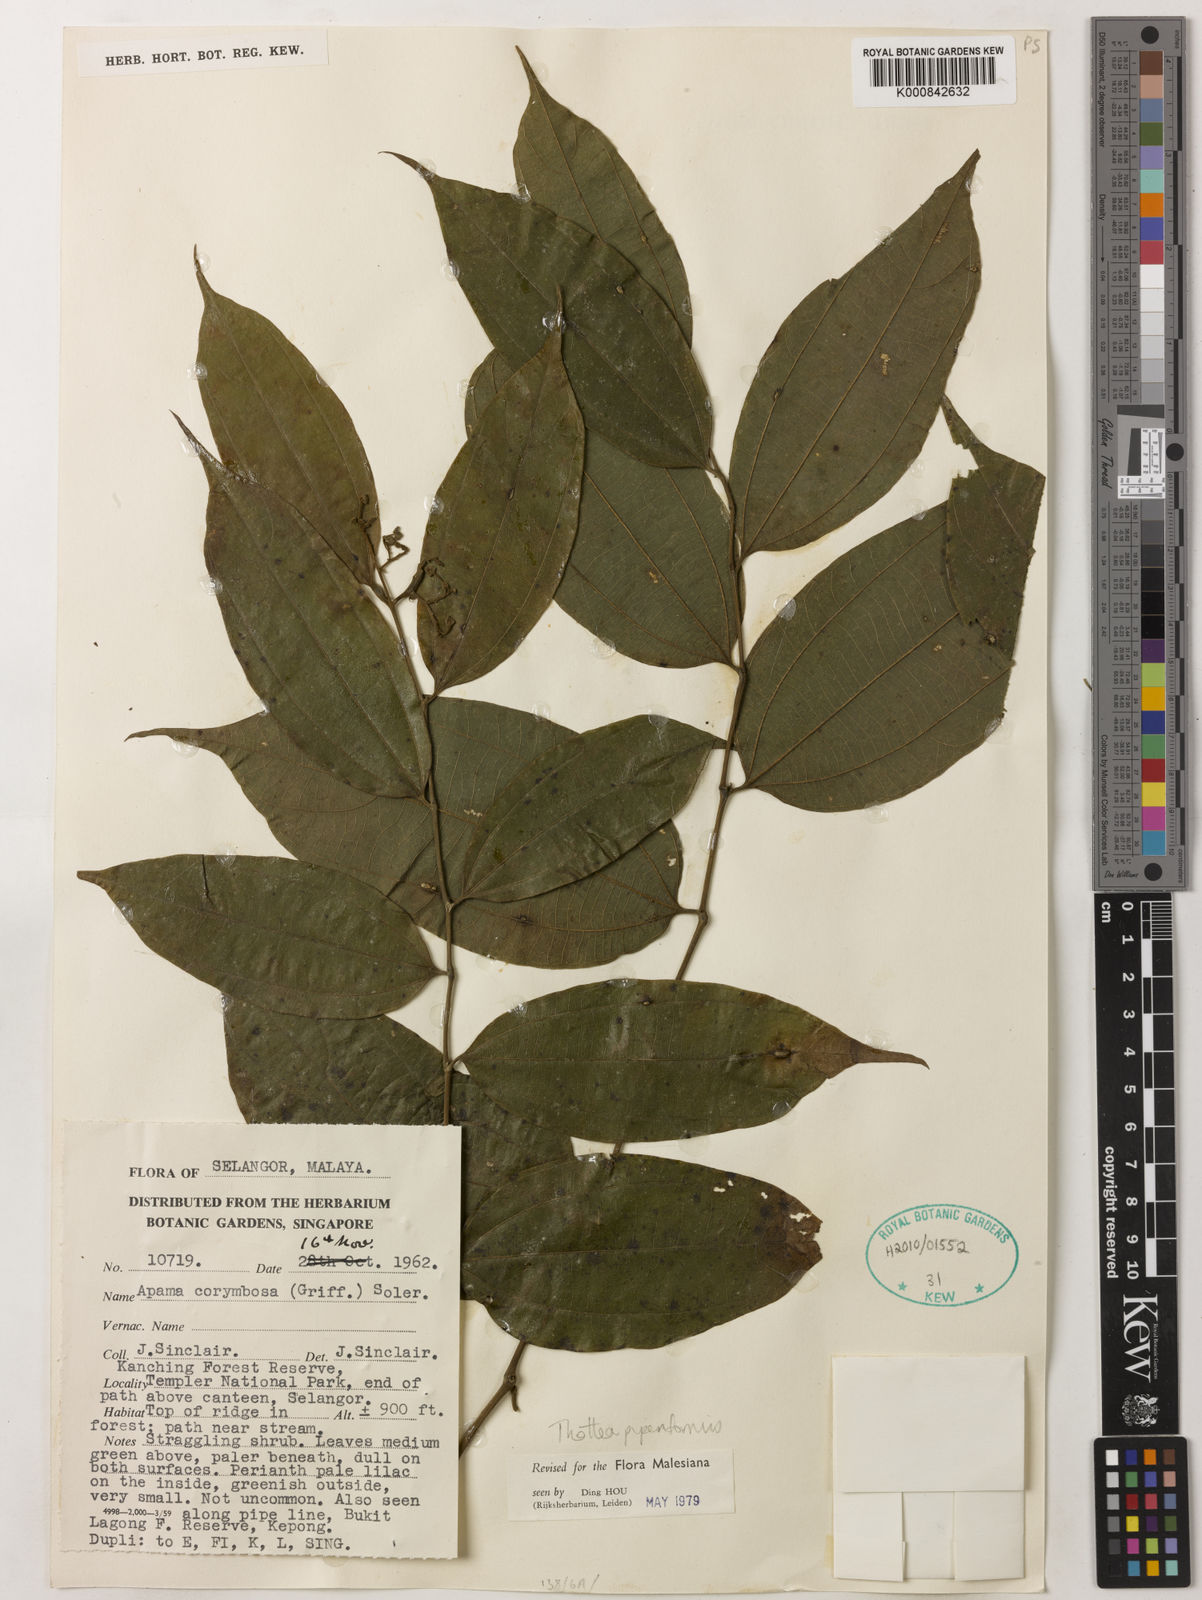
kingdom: Plantae
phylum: Tracheophyta
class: Magnoliopsida
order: Piperales
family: Aristolochiaceae
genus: Thottea
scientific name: Thottea piperiformis
